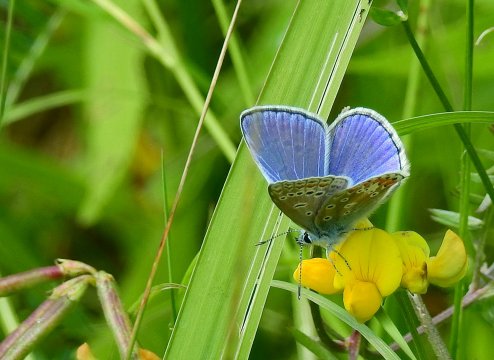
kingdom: Animalia
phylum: Arthropoda
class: Insecta
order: Lepidoptera
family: Lycaenidae
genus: Polyommatus
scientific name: Polyommatus icarus
